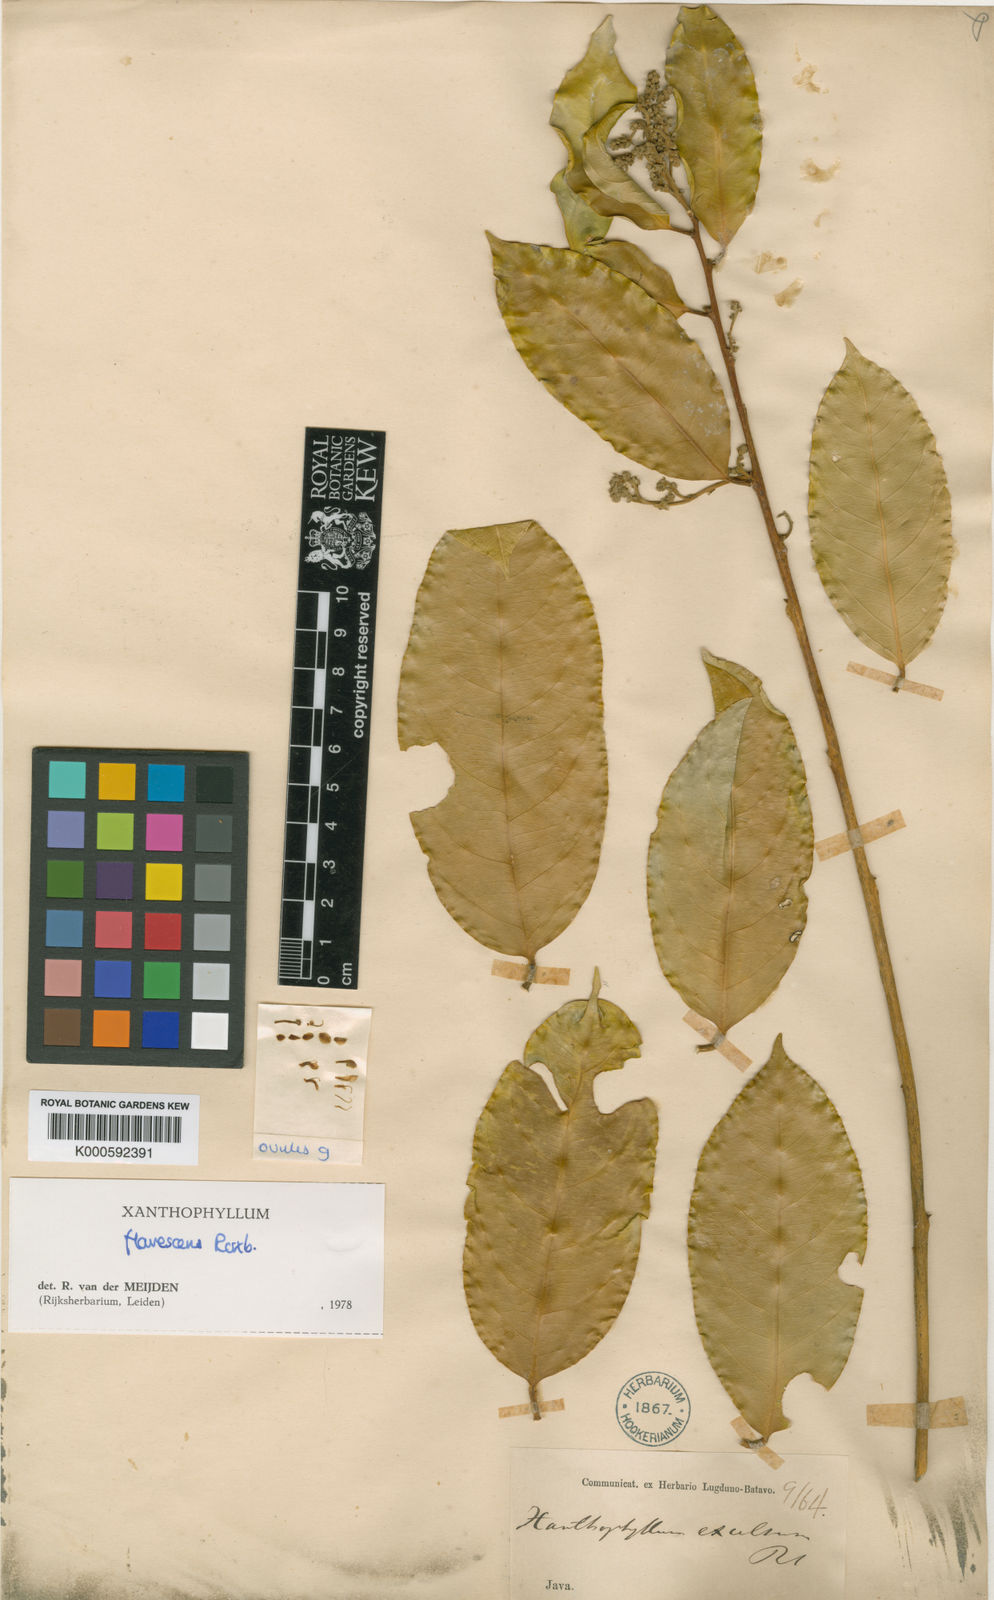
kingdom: Plantae
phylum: Tracheophyta
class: Magnoliopsida
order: Fabales
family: Polygalaceae
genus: Xanthophyllum
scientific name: Xanthophyllum flavescens
